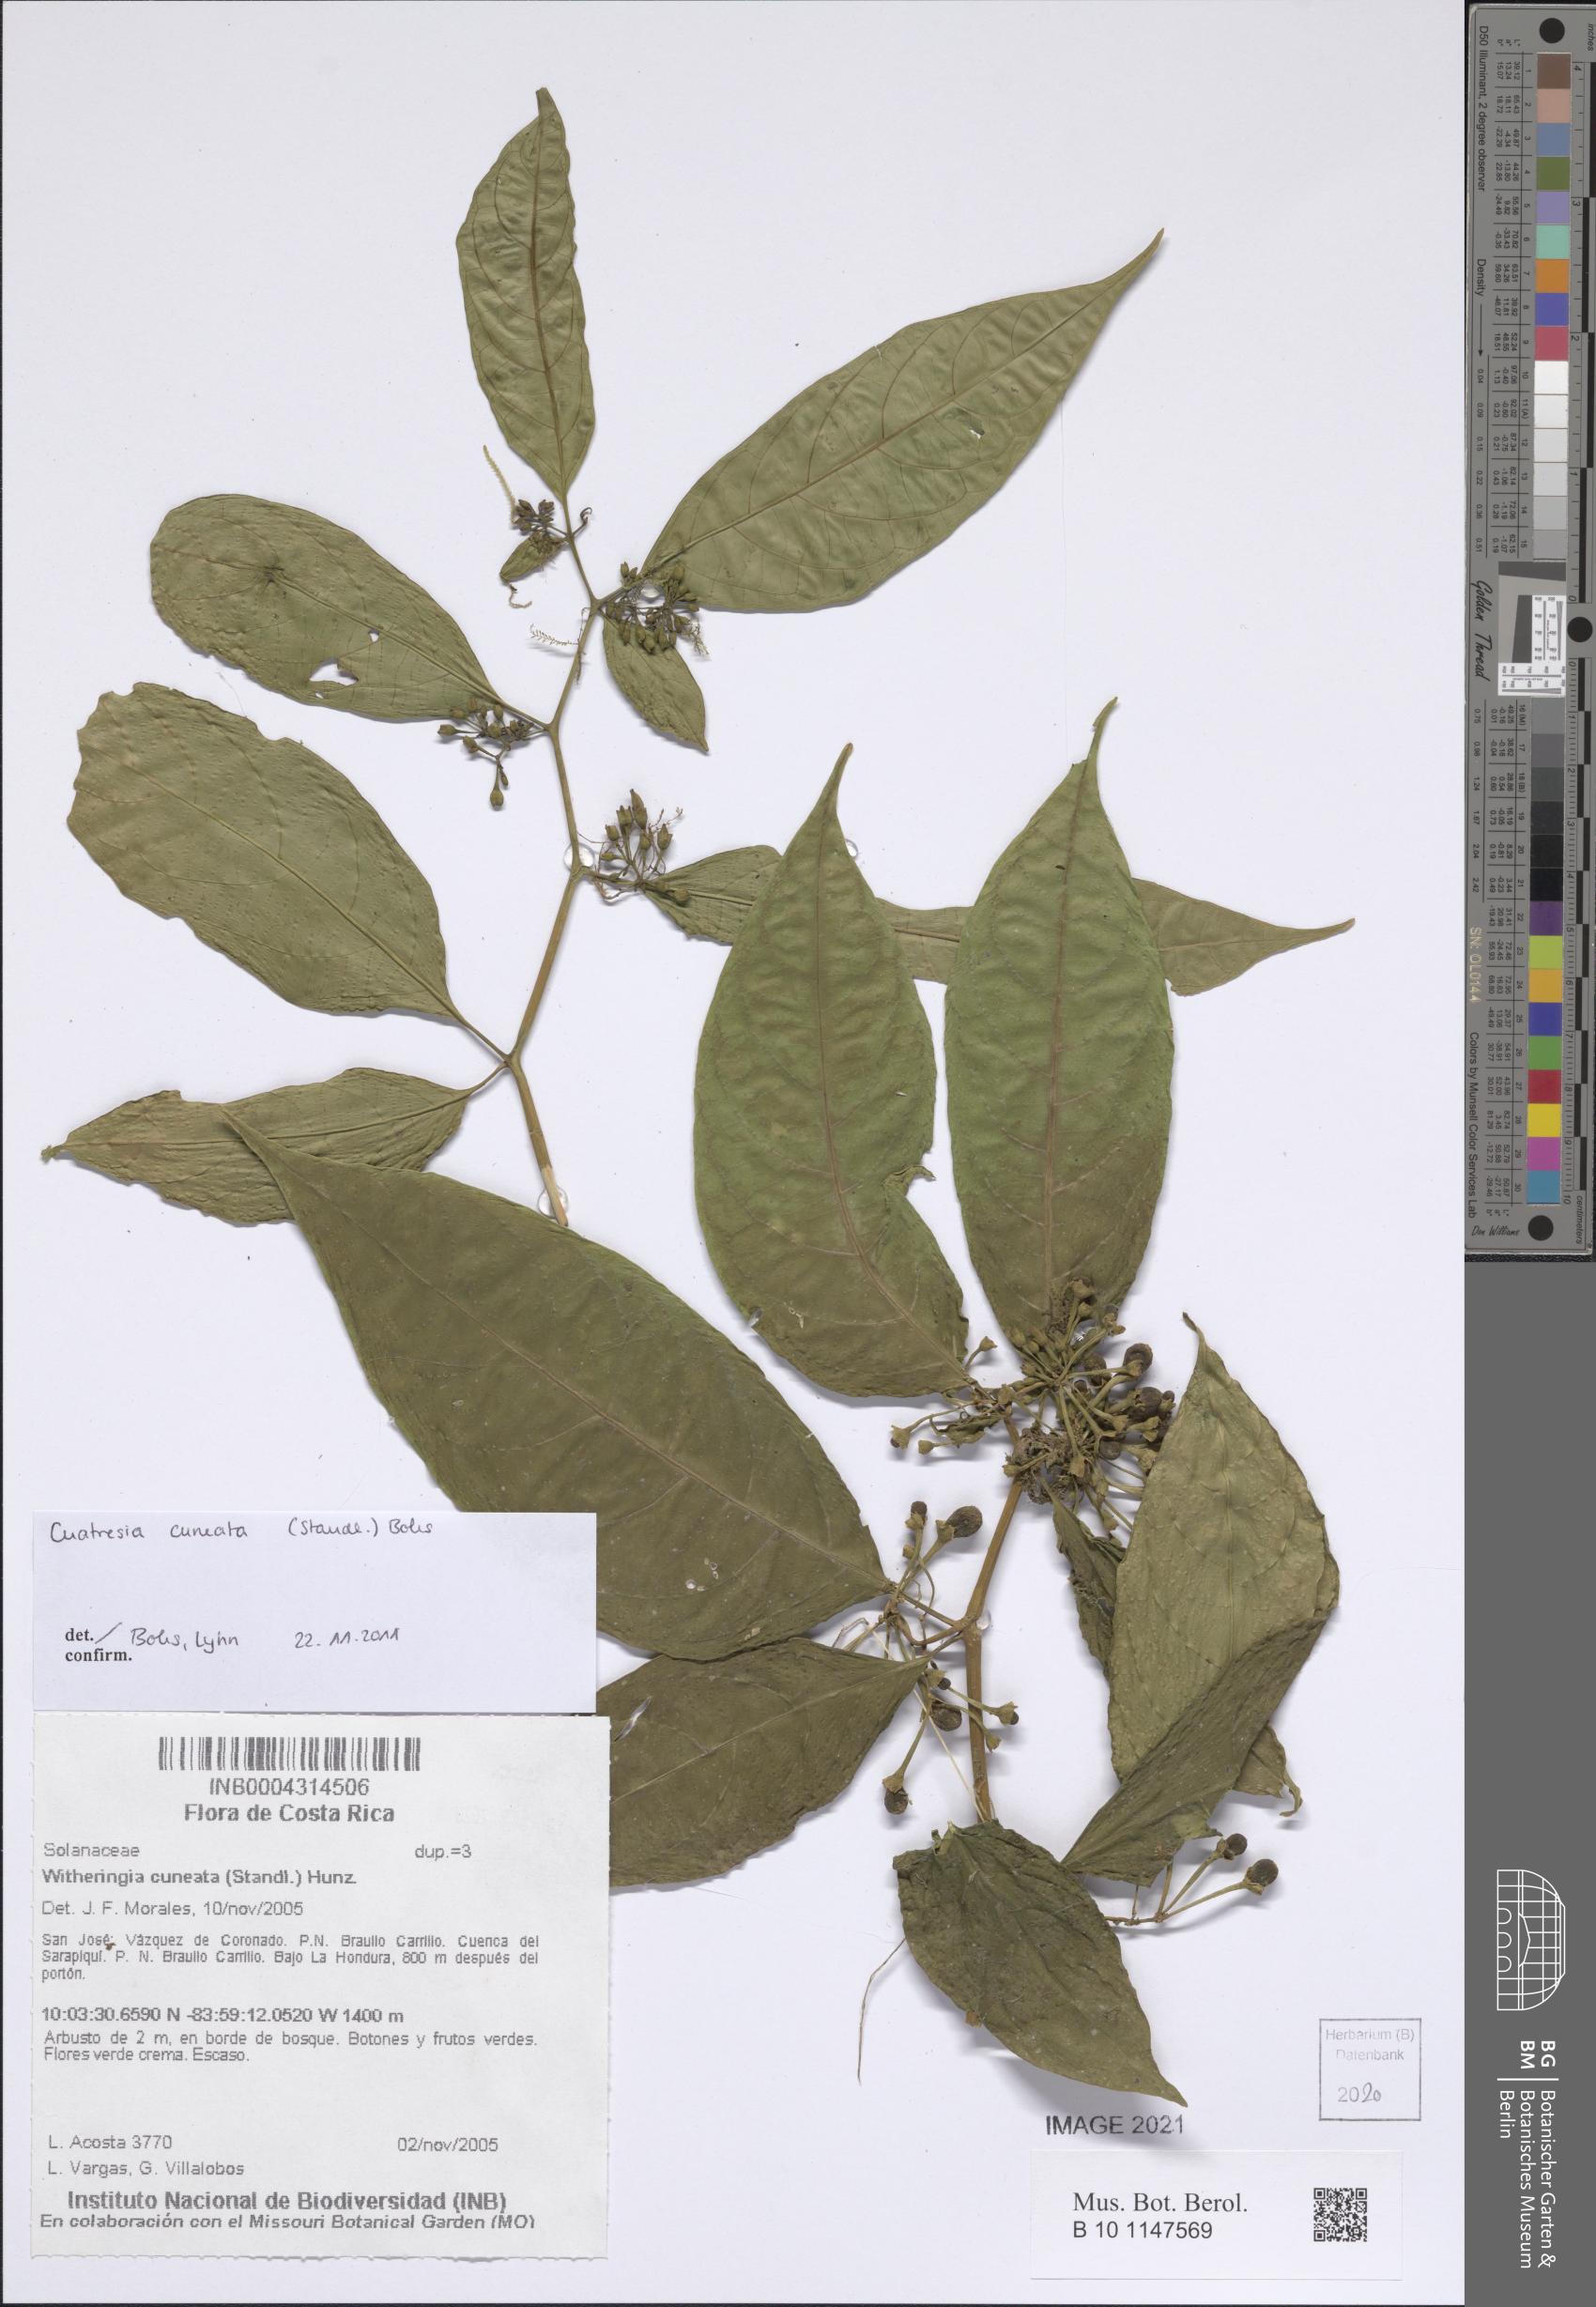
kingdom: Plantae
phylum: Tracheophyta
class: Magnoliopsida
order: Solanales
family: Solanaceae
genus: Cuatresia
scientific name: Cuatresia cuneata
